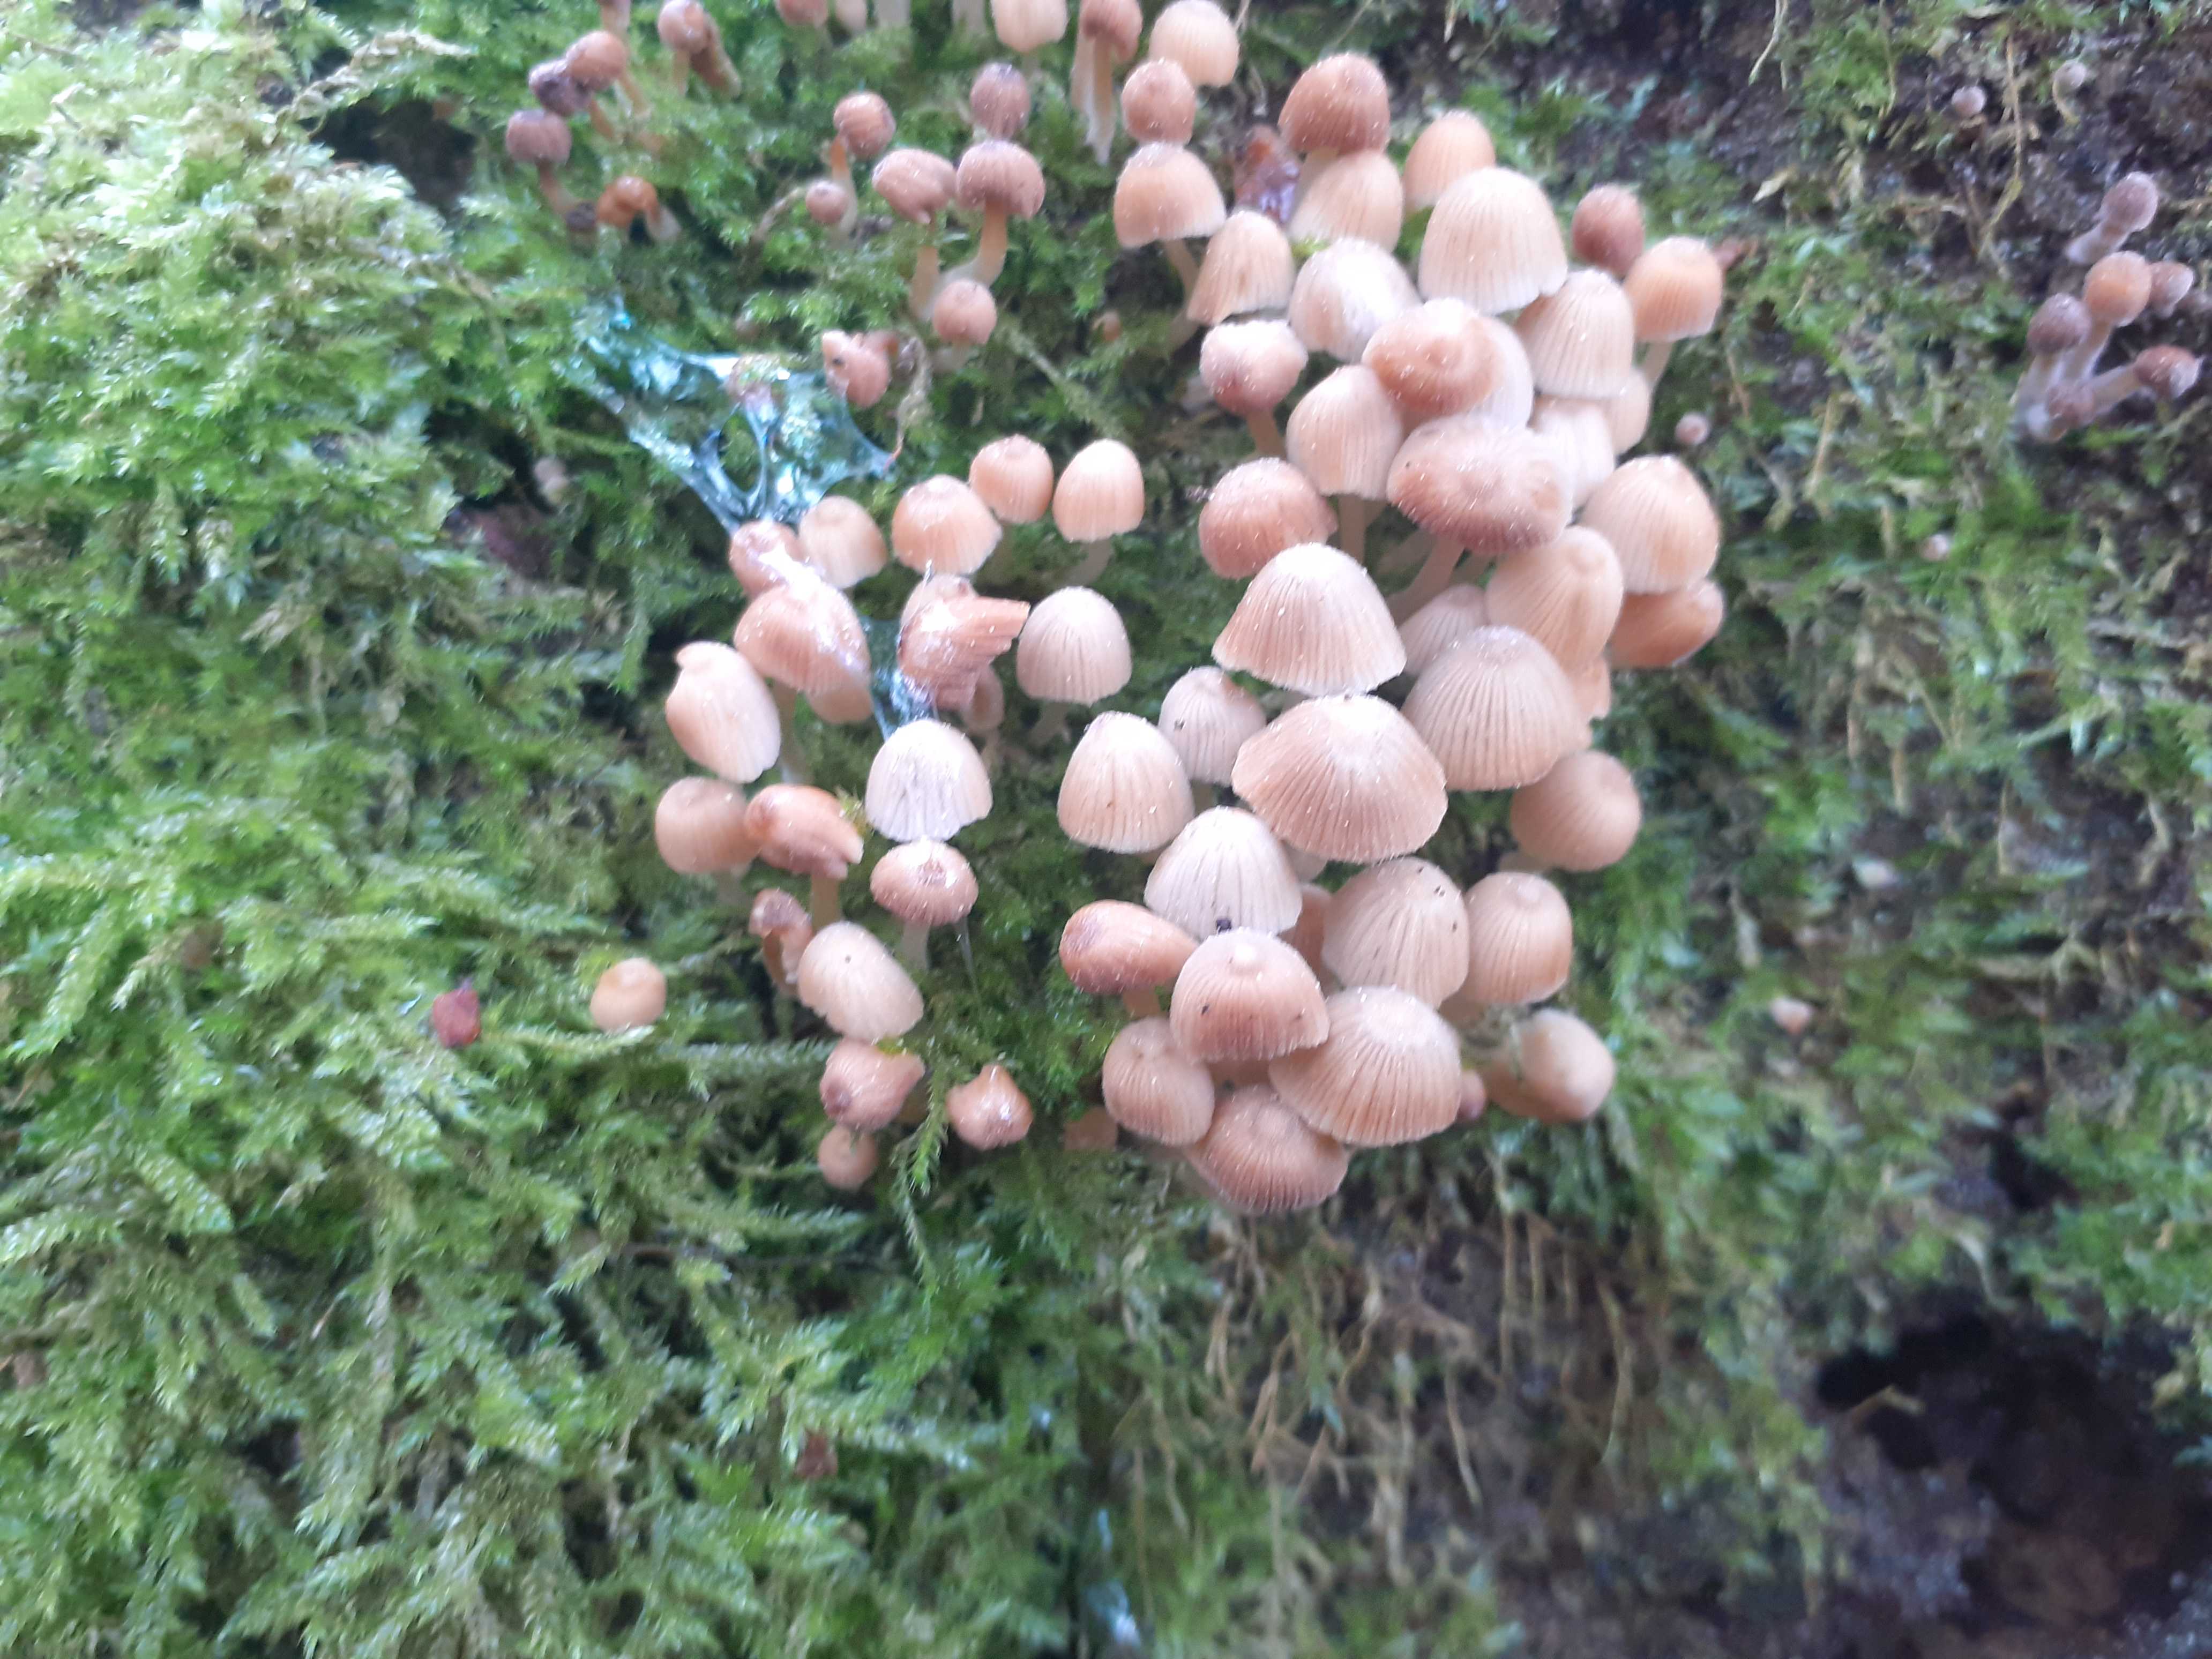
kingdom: Fungi
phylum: Basidiomycota
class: Agaricomycetes
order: Agaricales
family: Psathyrellaceae
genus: Coprinellus
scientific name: Coprinellus disseminatus
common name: bredsået blækhat
